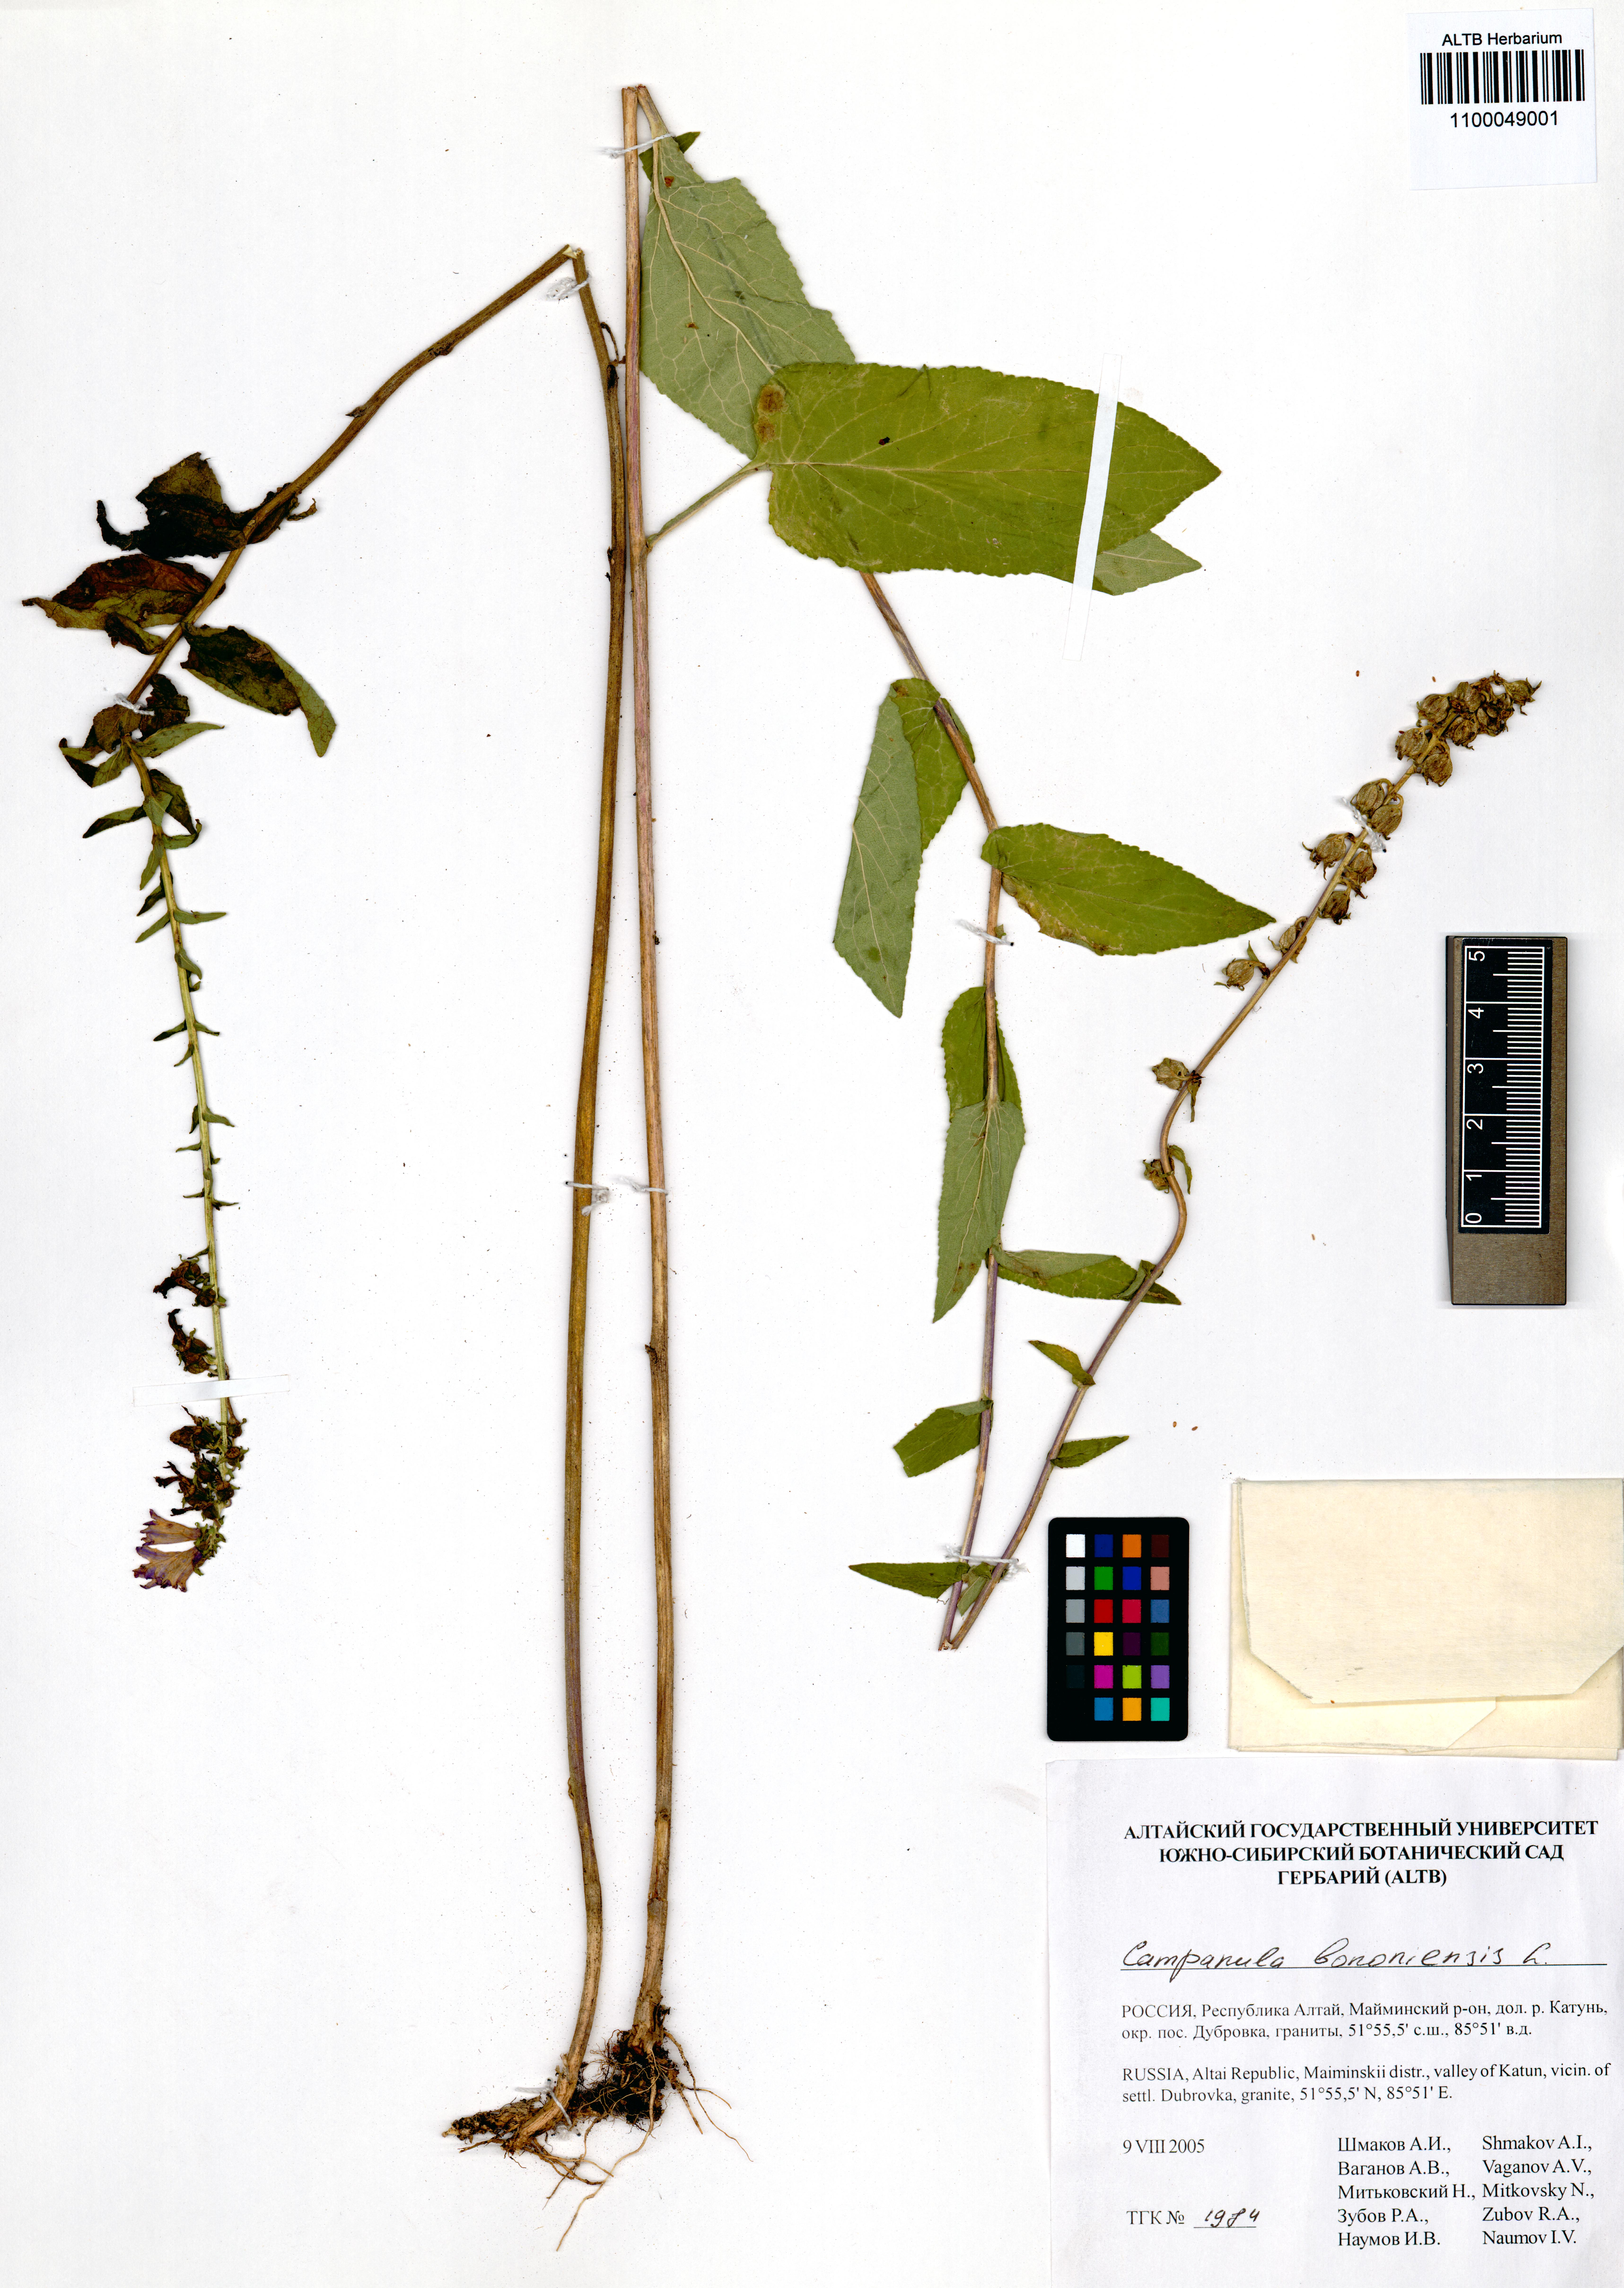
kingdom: Plantae
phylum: Tracheophyta
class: Magnoliopsida
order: Asterales
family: Campanulaceae
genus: Campanula
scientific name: Campanula bononiensis
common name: Pale bellflower
